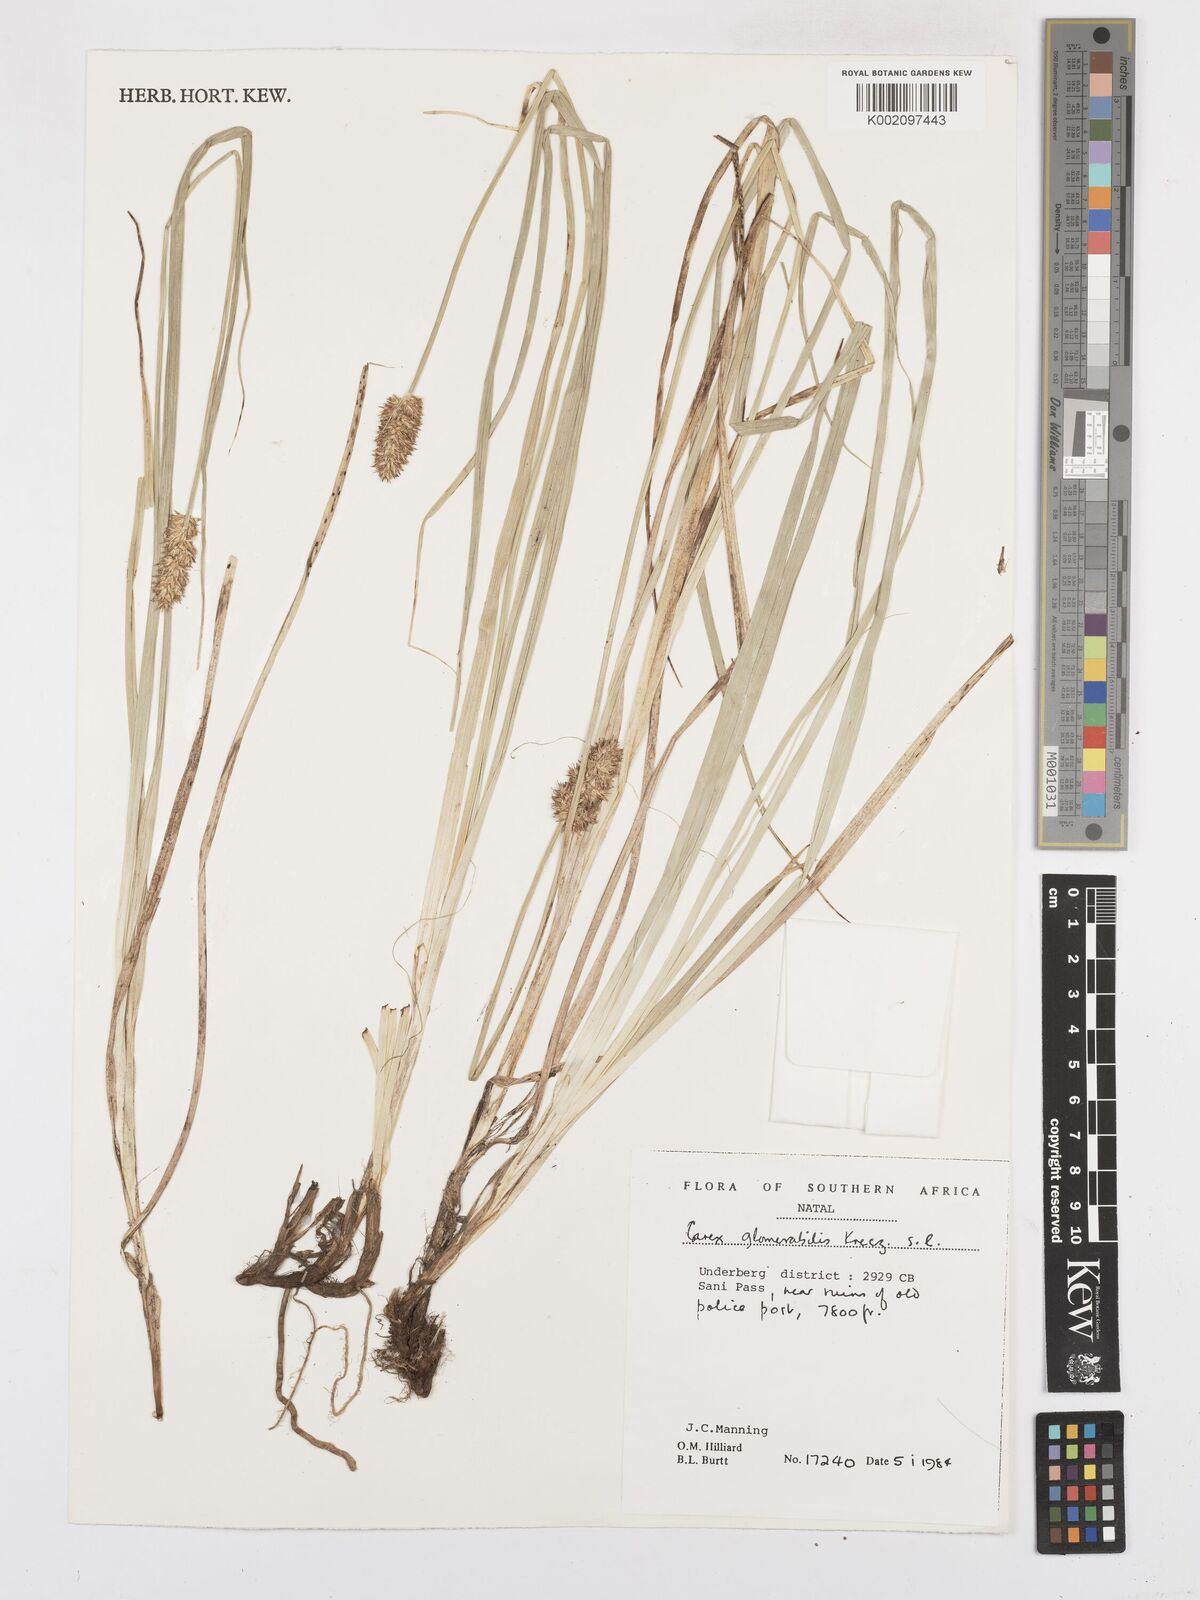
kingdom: Plantae
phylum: Tracheophyta
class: Liliopsida
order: Poales
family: Cyperaceae
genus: Carex
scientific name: Carex glomerata
